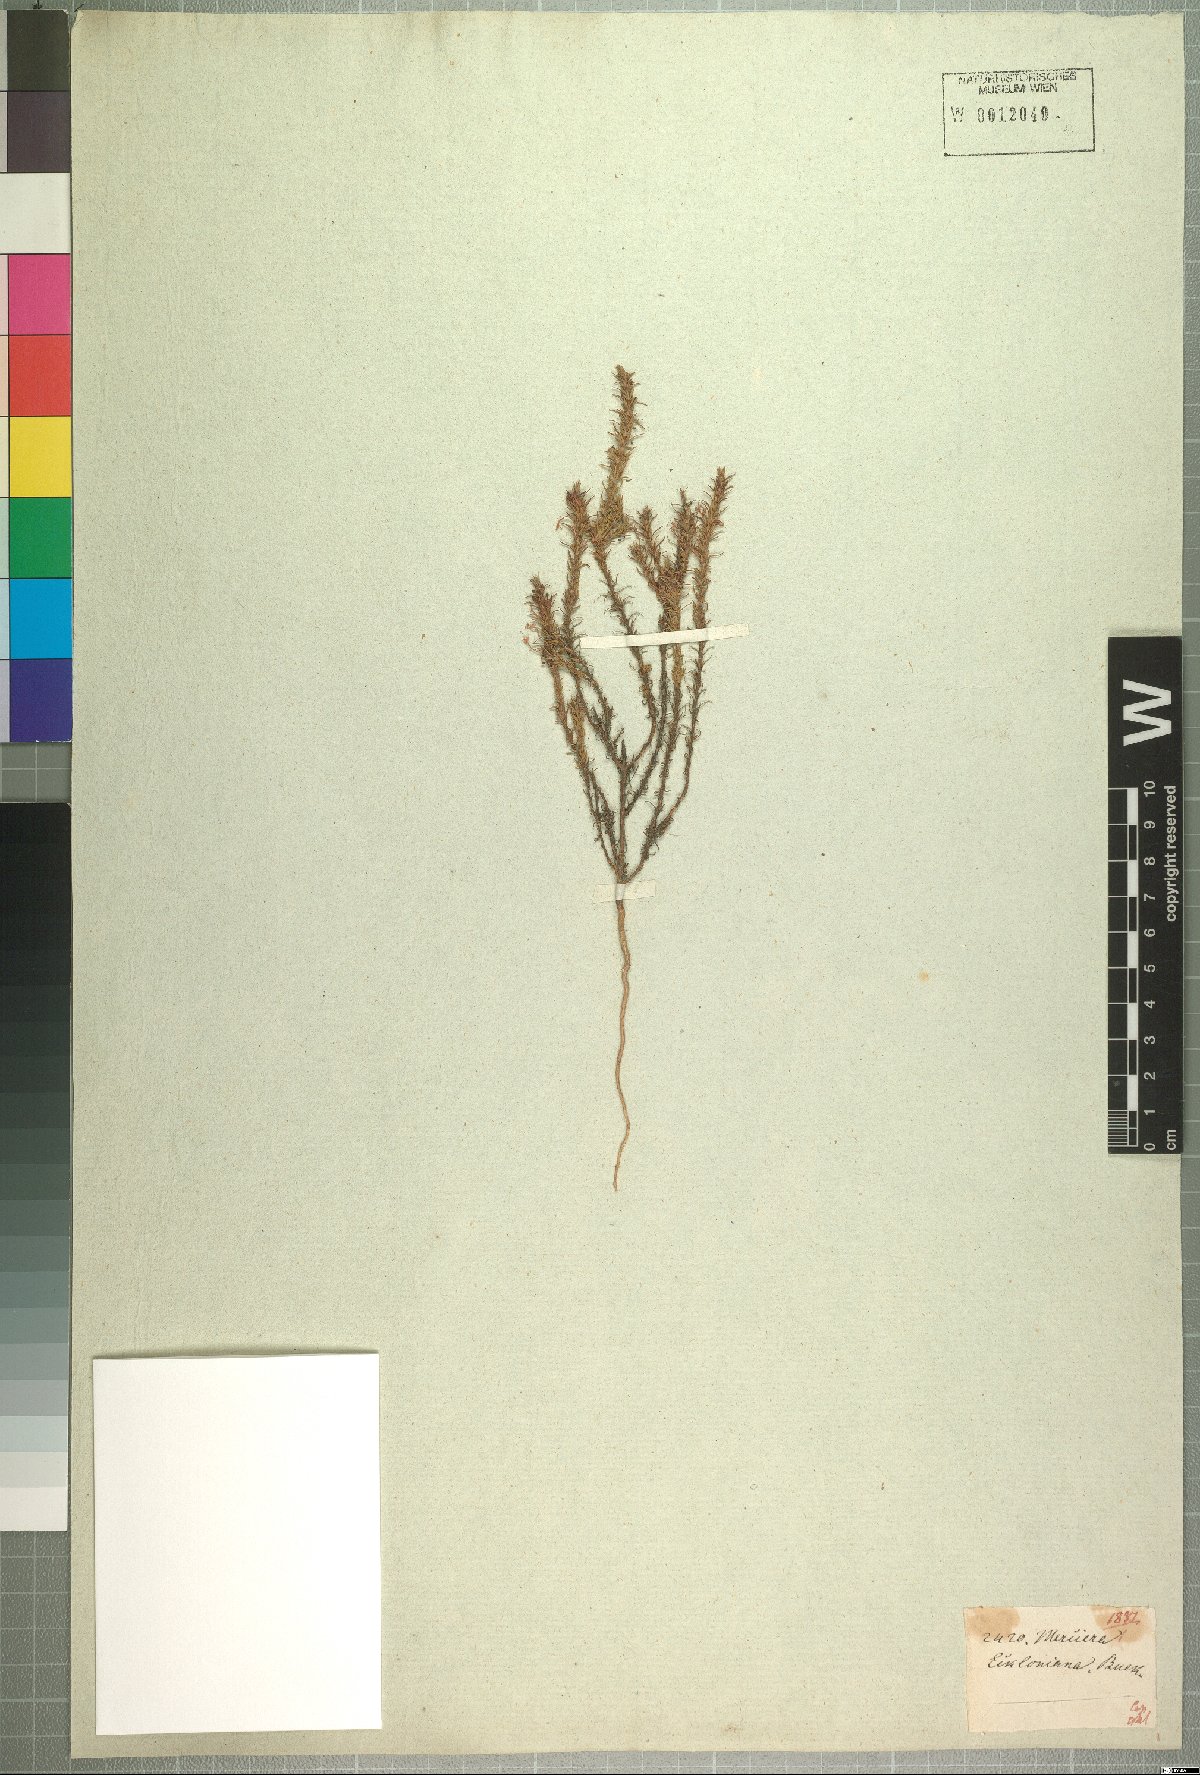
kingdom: Plantae
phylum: Tracheophyta
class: Magnoliopsida
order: Asterales
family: Campanulaceae
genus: Merciera
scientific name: Merciera eckloniana
